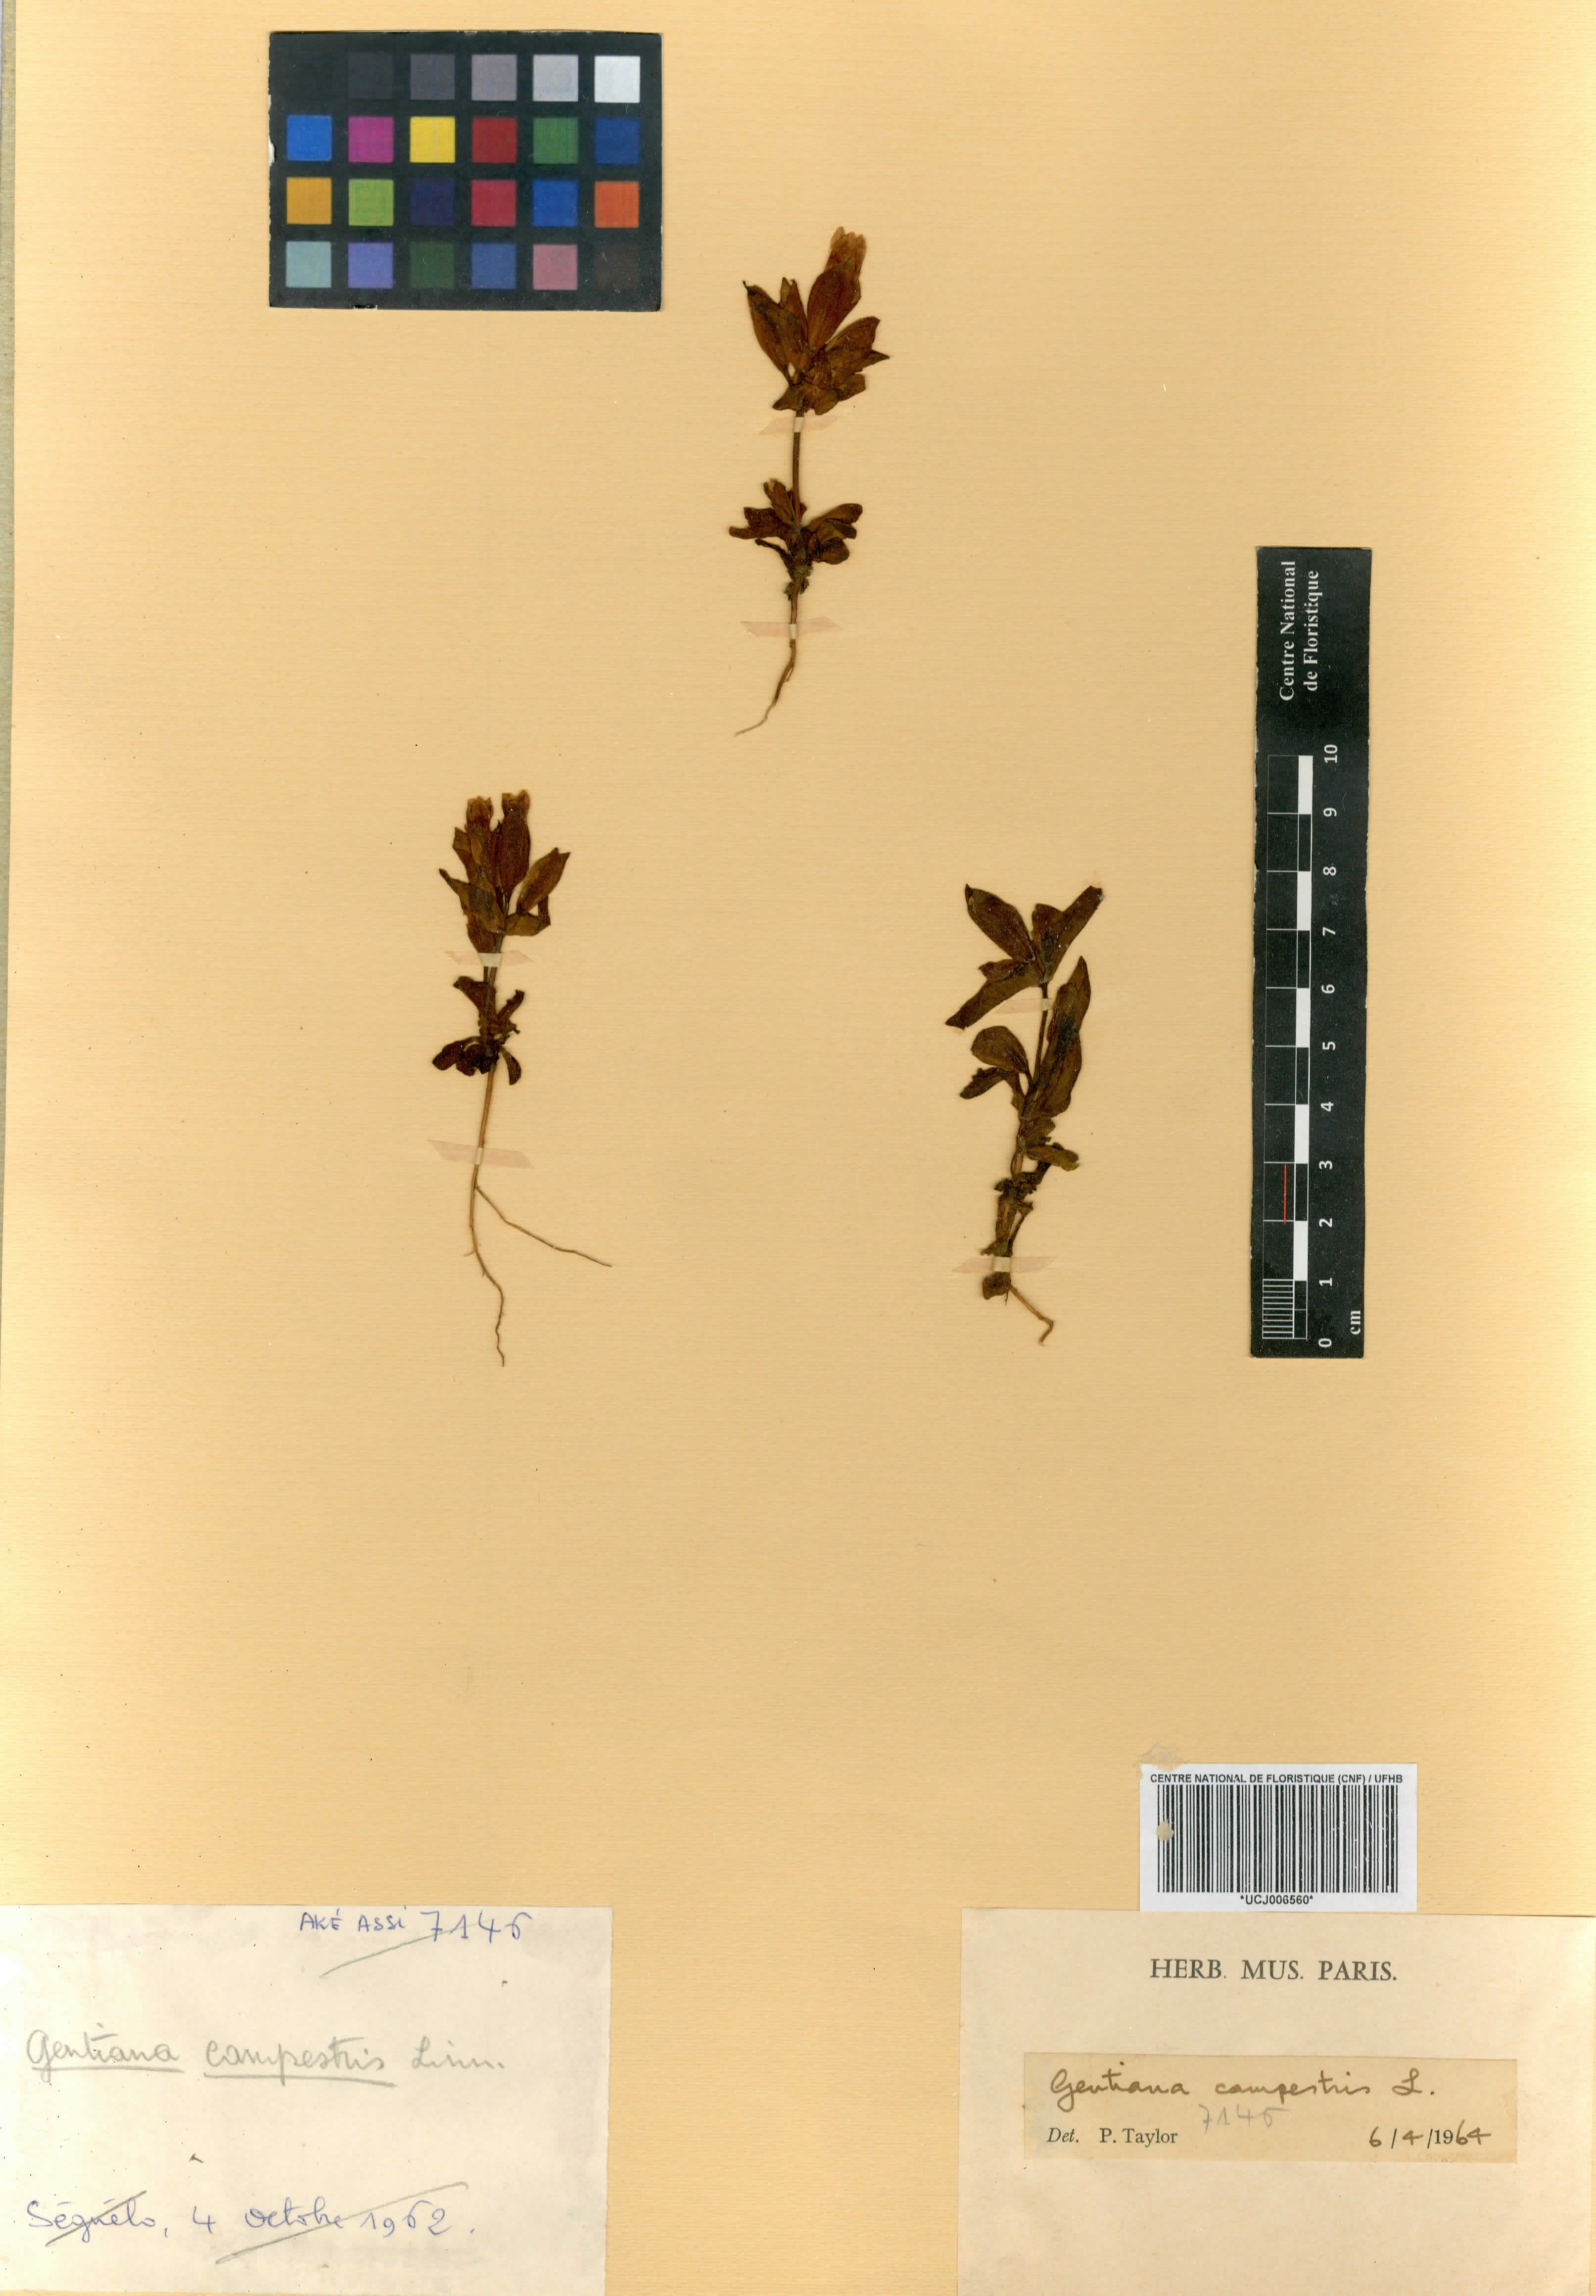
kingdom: Plantae
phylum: Tracheophyta
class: Magnoliopsida
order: Gentianales
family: Gentianaceae
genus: Gentianella
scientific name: Gentianella campestris
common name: Field gentian
